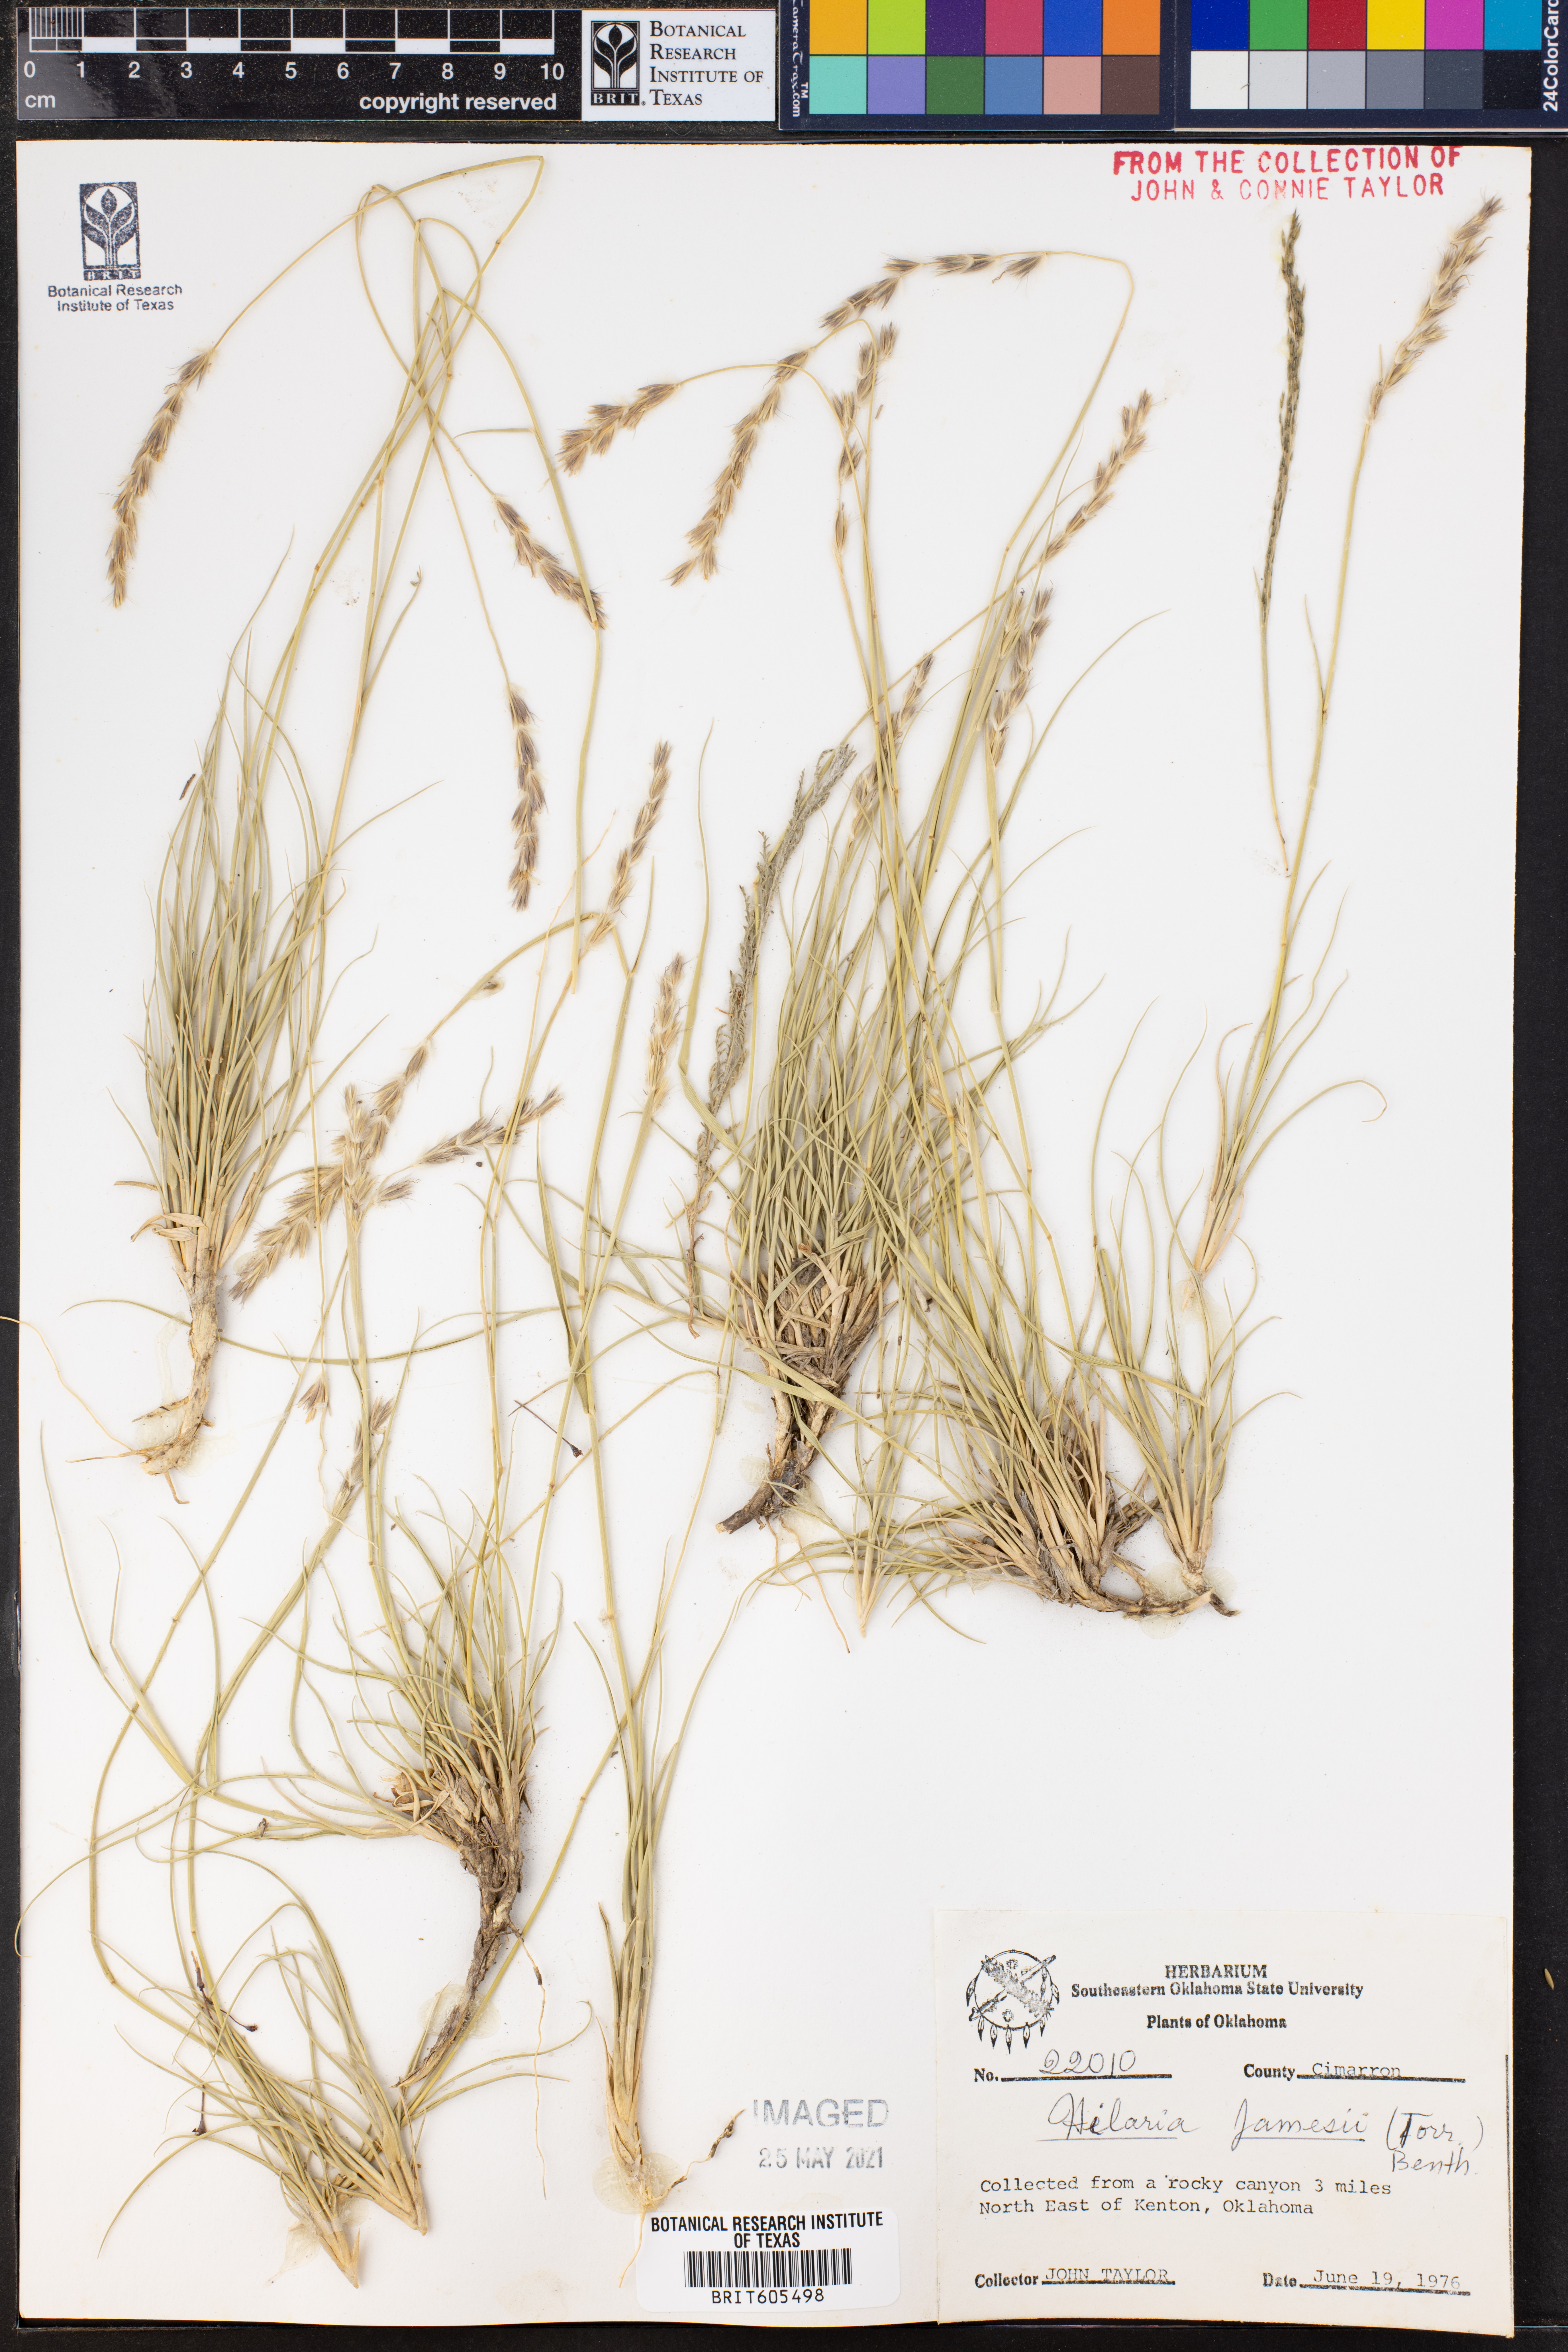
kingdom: Plantae
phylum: Tracheophyta
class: Liliopsida
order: Poales
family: Poaceae
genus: Hilaria
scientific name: Hilaria jamesii
